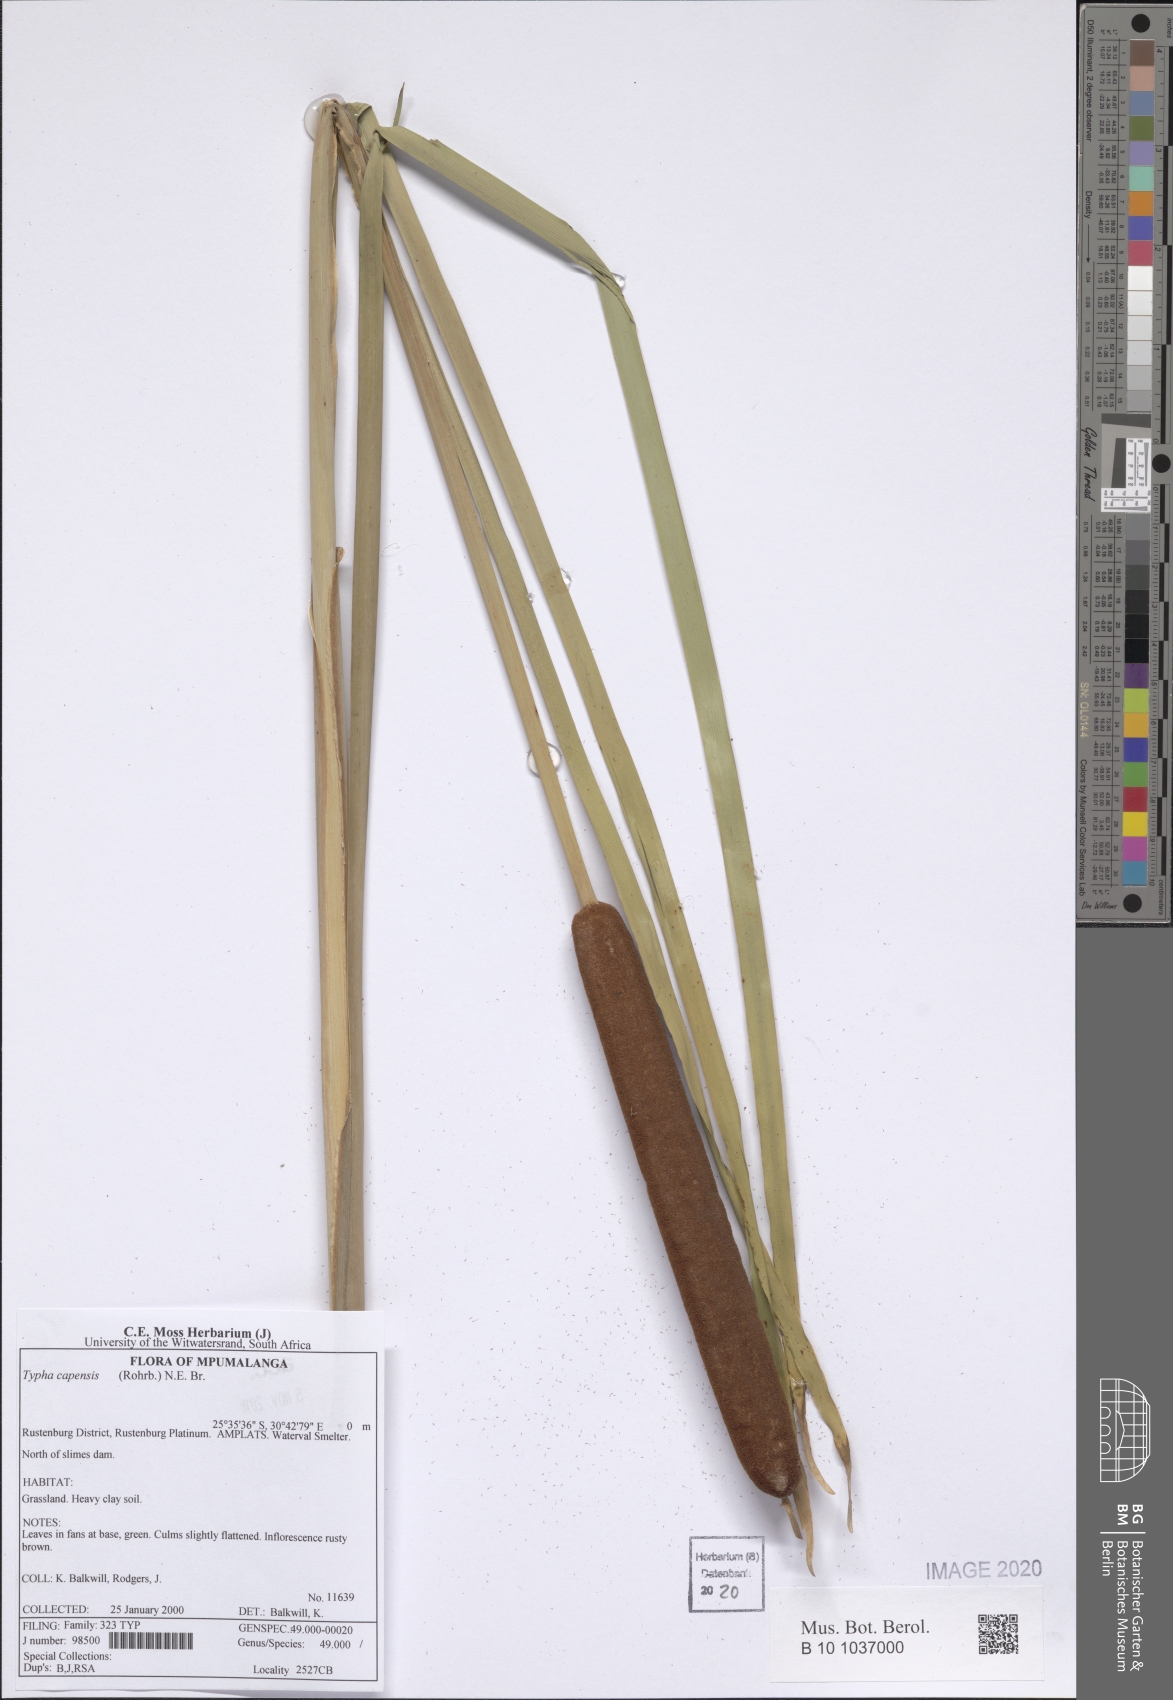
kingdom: Plantae
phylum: Tracheophyta
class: Liliopsida
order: Poales
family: Typhaceae
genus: Typha
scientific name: Typha capensis
